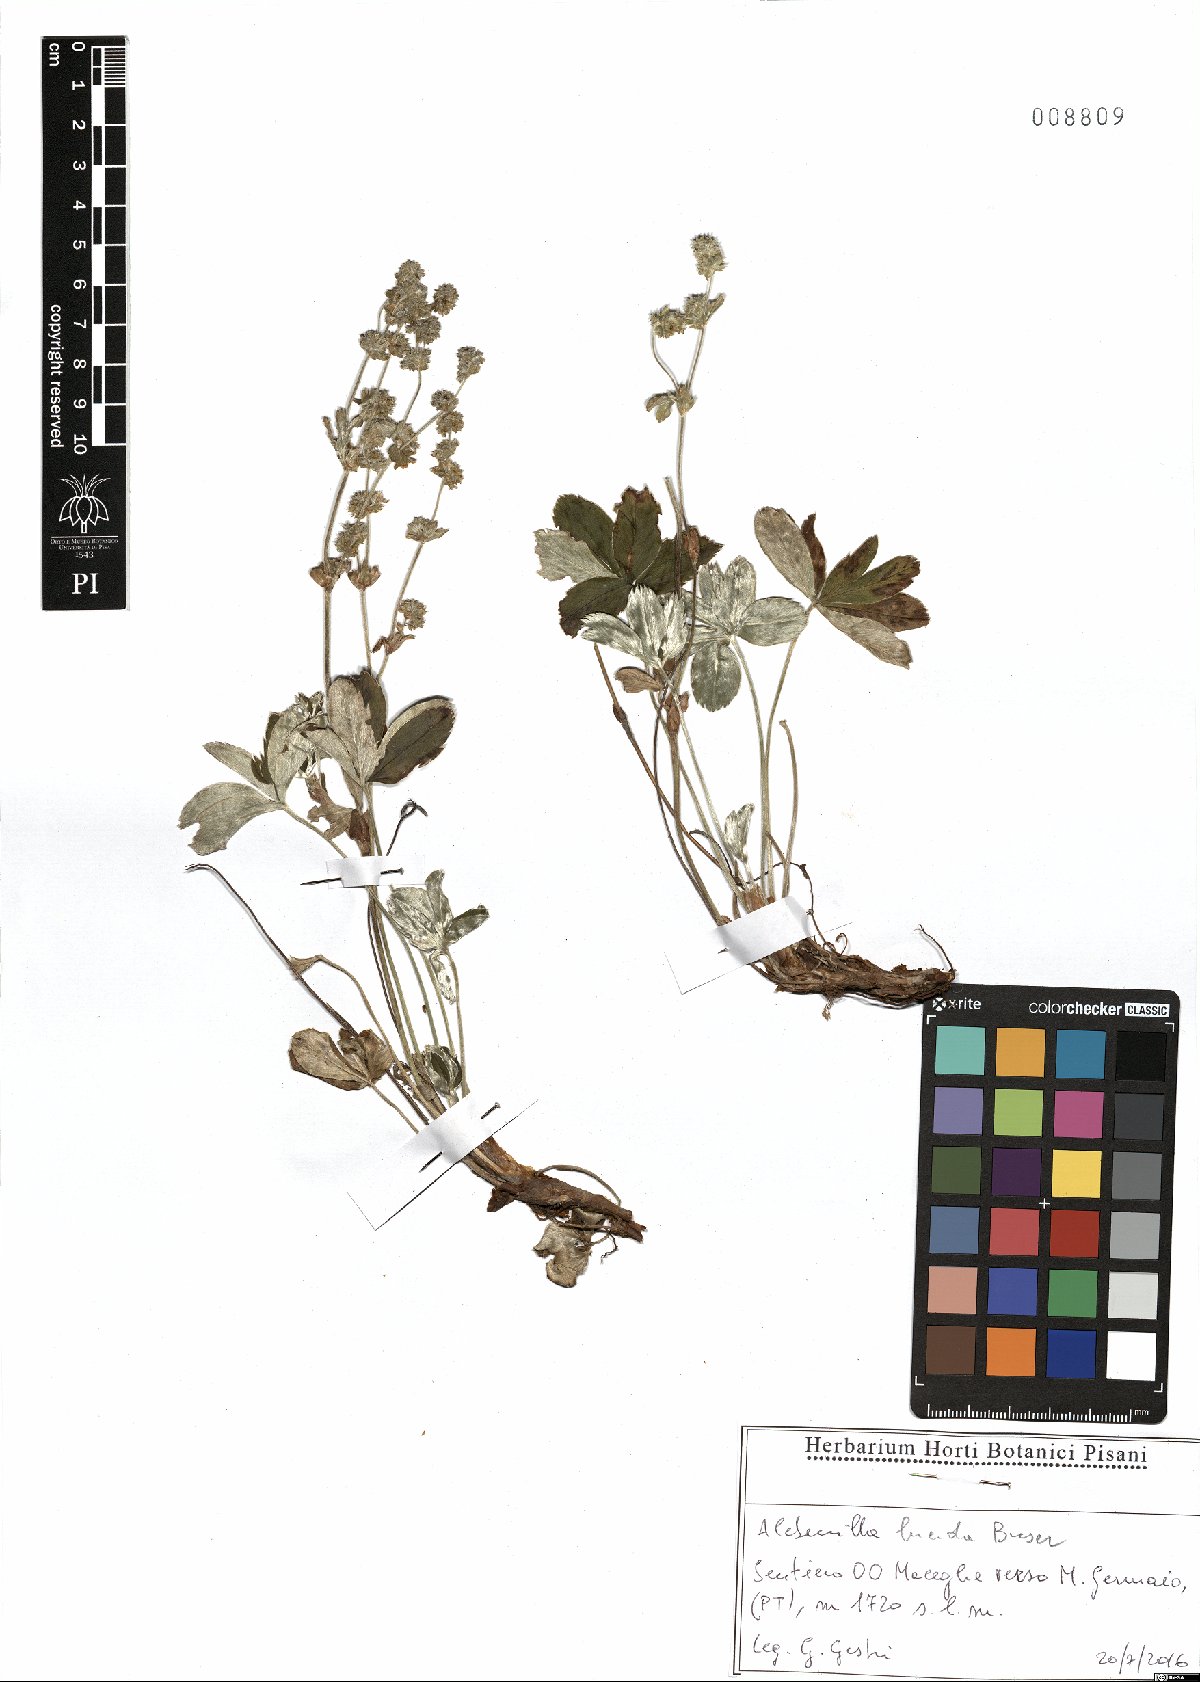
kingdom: Plantae
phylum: Tracheophyta
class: Magnoliopsida
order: Rosales
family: Rosaceae
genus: Alchemilla
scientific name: Alchemilla lucida
